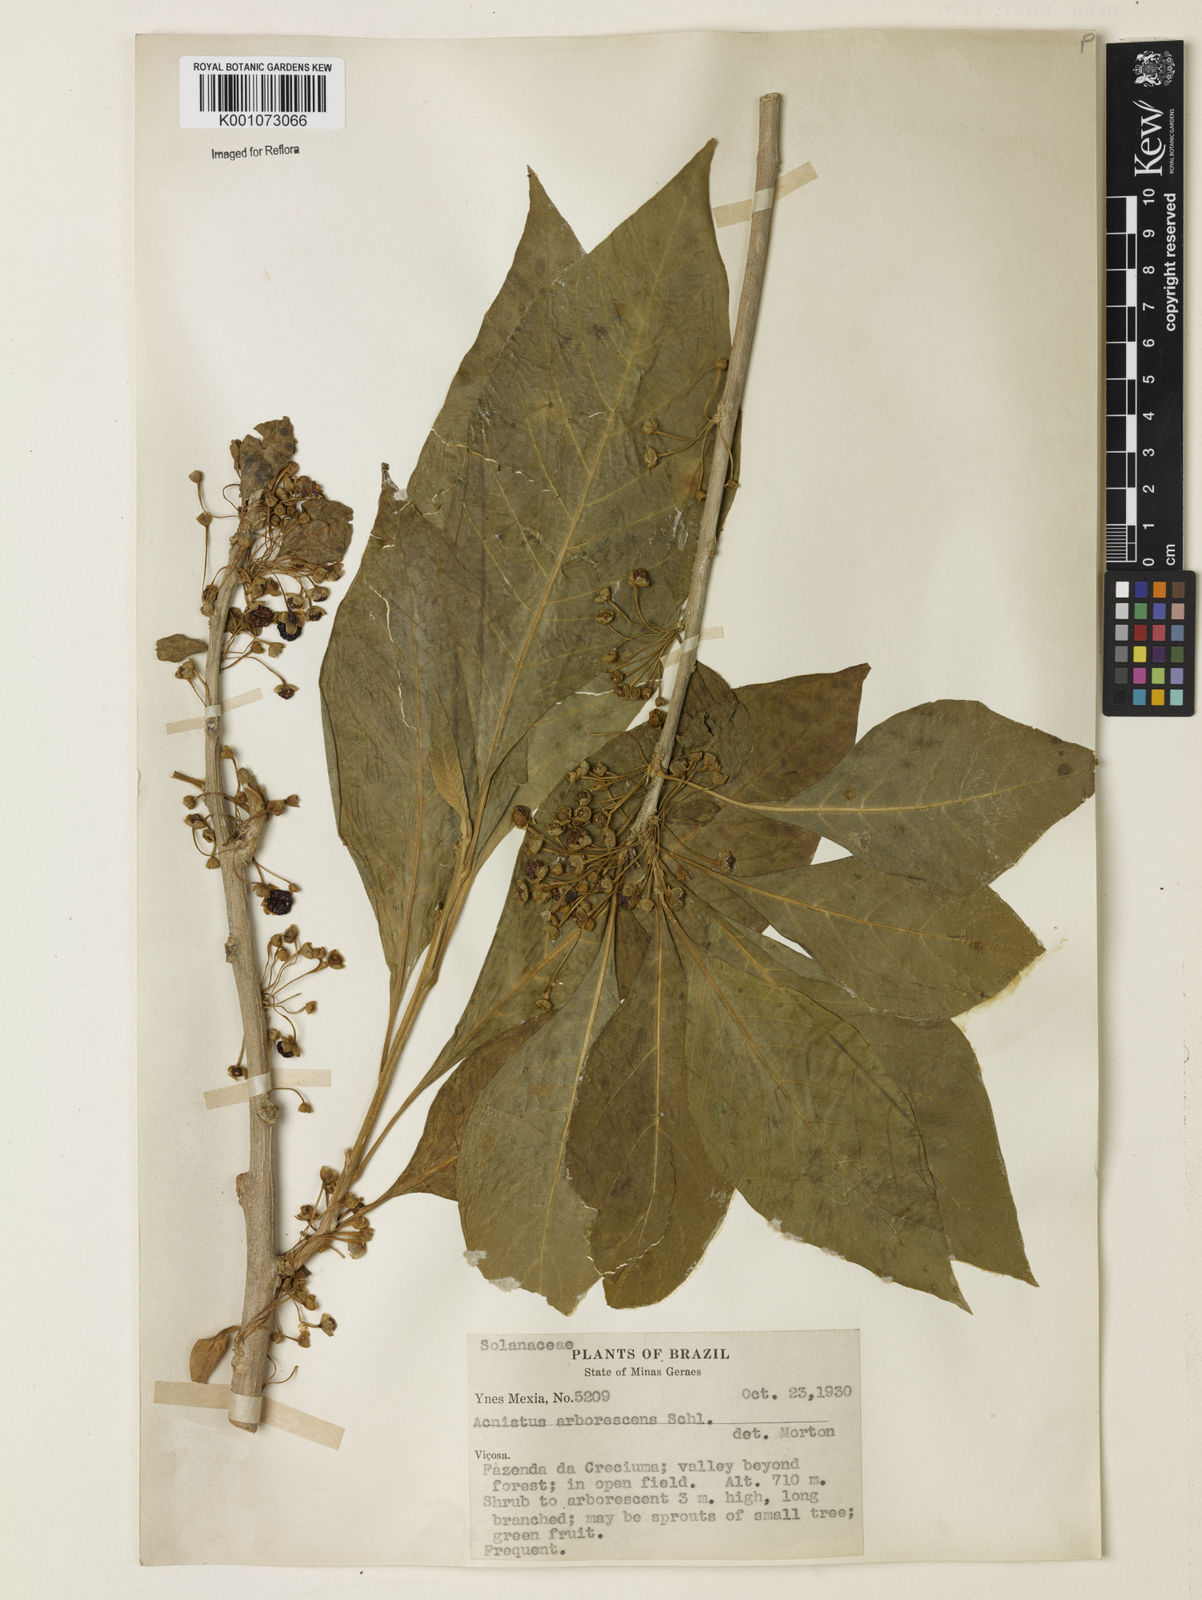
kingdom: Plantae
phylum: Tracheophyta
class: Magnoliopsida
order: Solanales
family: Solanaceae
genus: Iochroma
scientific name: Iochroma arborescens
